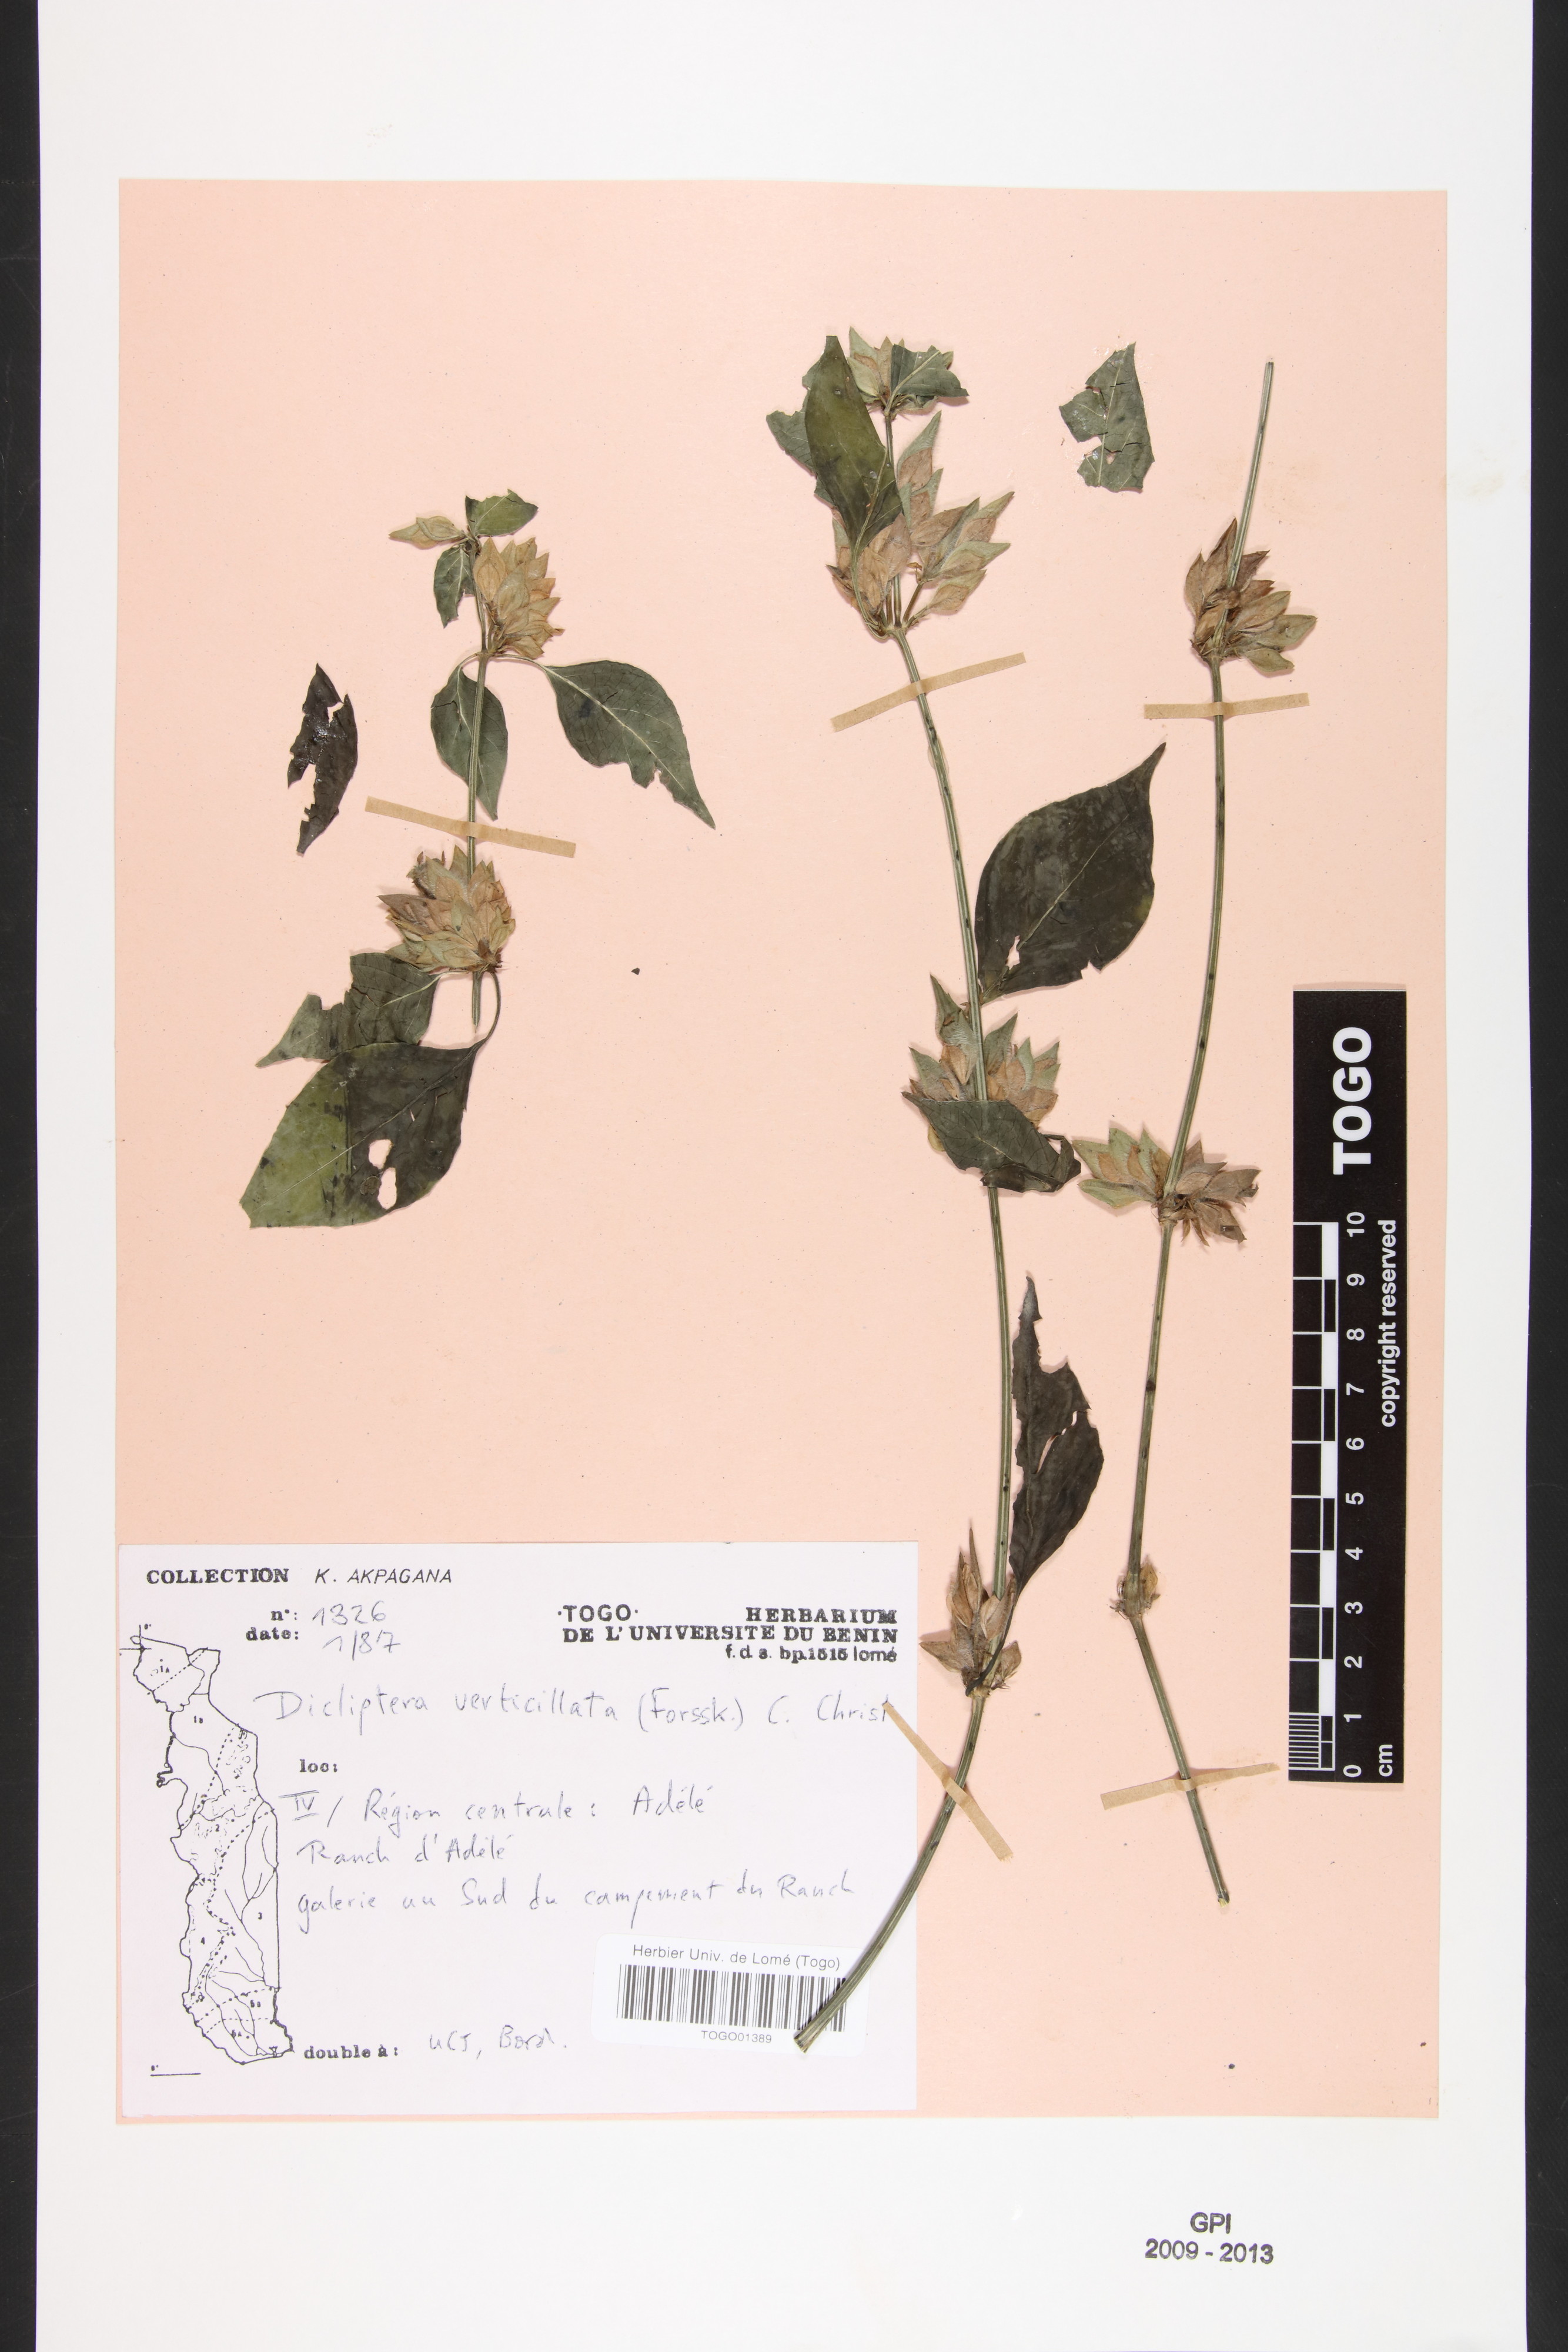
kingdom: Plantae
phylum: Tracheophyta
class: Magnoliopsida
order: Lamiales
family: Acanthaceae
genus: Dicliptera
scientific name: Dicliptera verticillata
